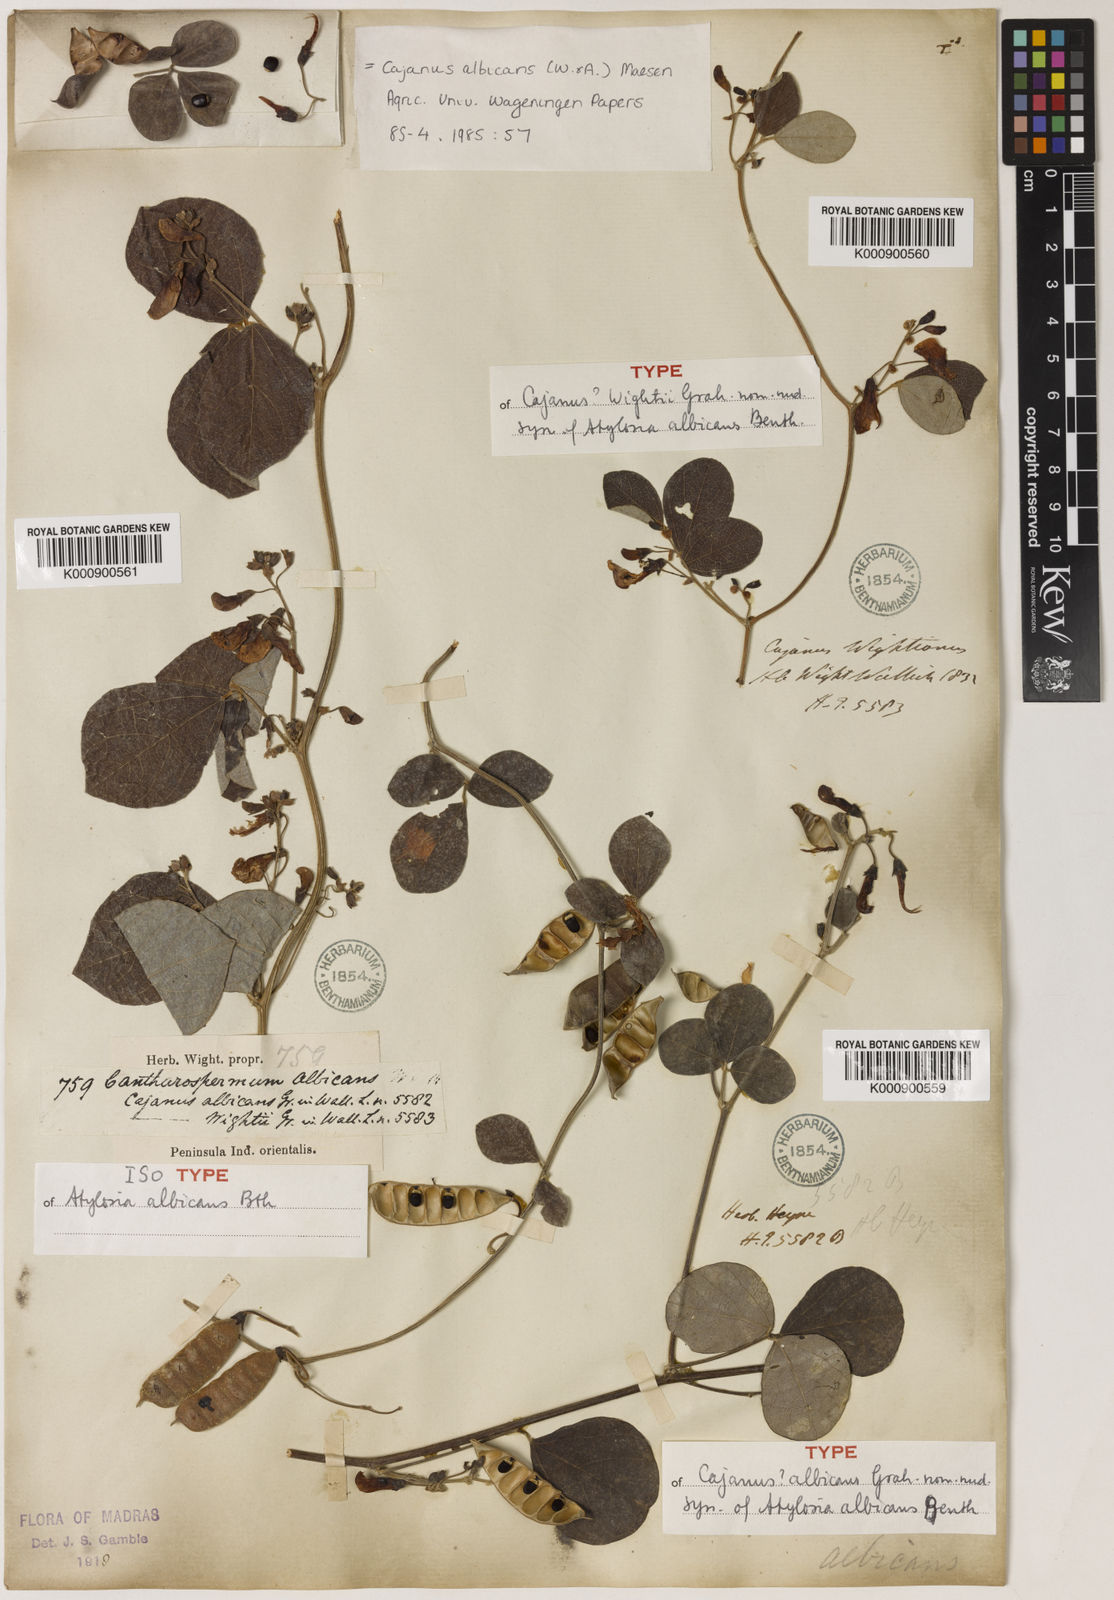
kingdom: Plantae
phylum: Tracheophyta
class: Magnoliopsida
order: Fabales
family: Fabaceae
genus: Cajanus
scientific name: Cajanus albicans
